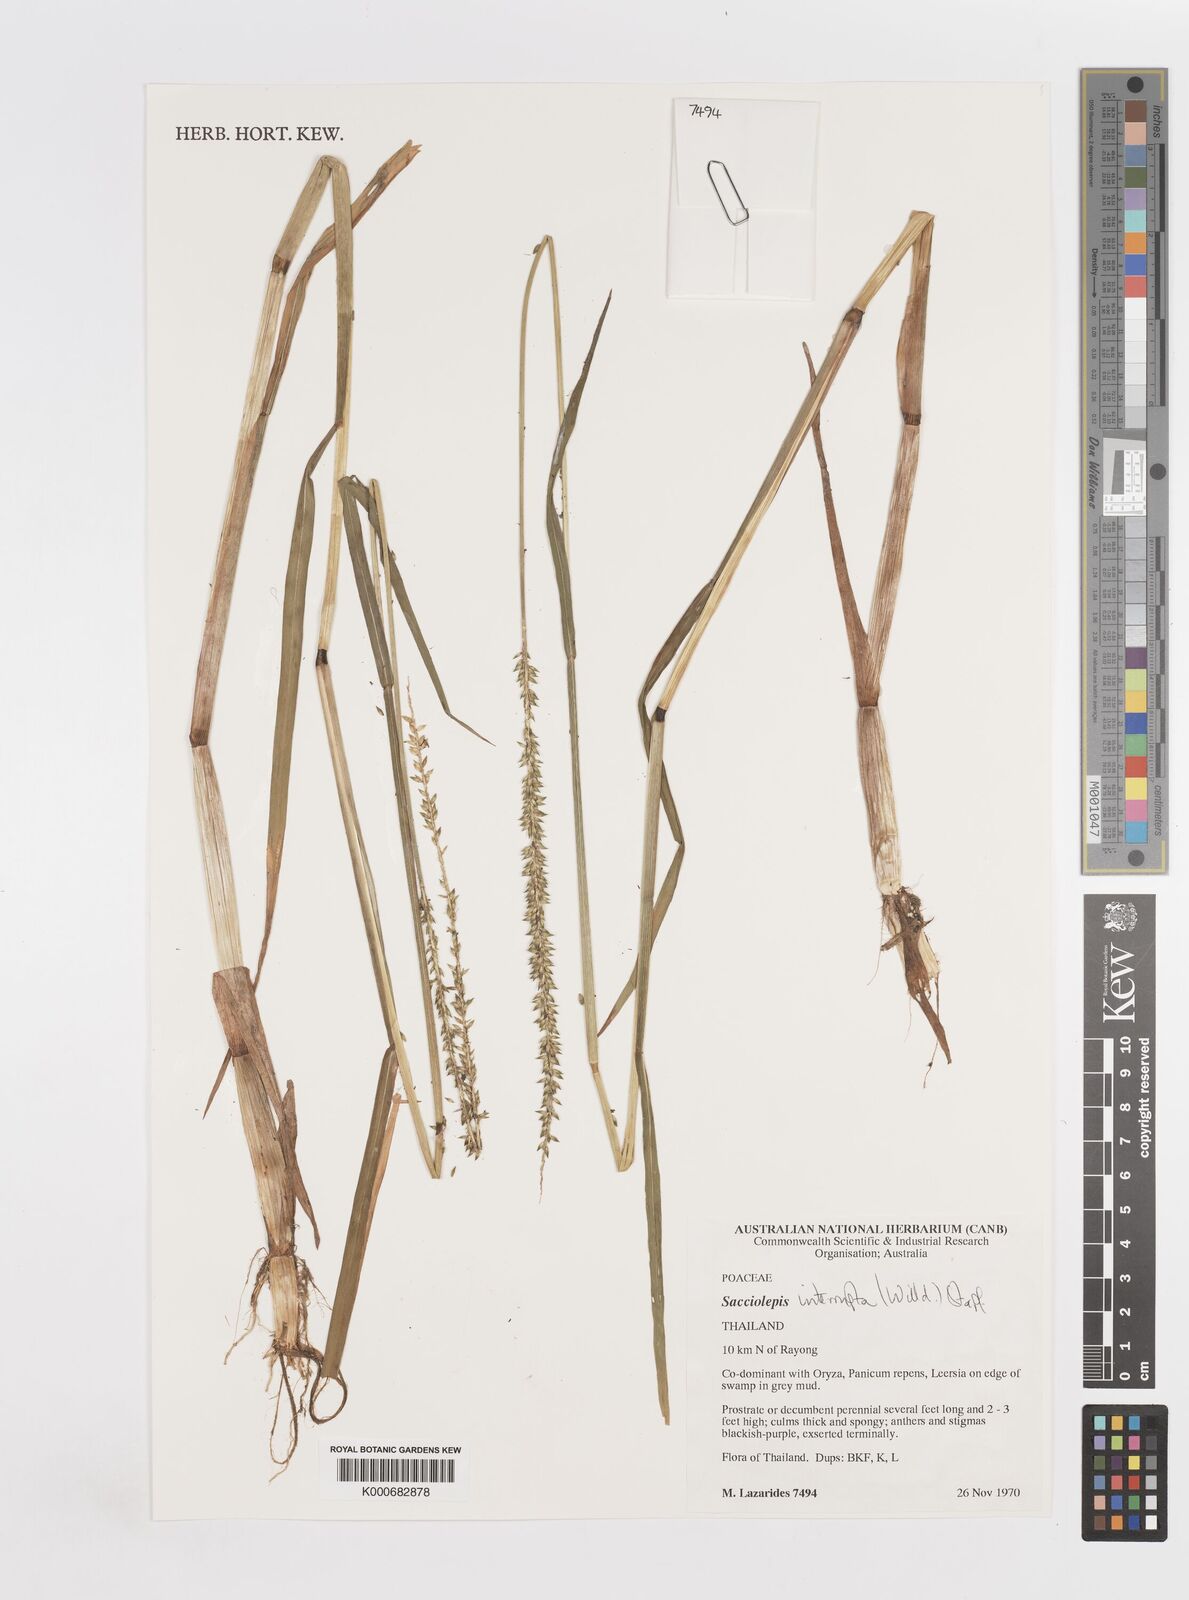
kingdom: Plantae
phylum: Tracheophyta
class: Liliopsida
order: Poales
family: Poaceae
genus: Sacciolepis
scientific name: Sacciolepis interrupta
